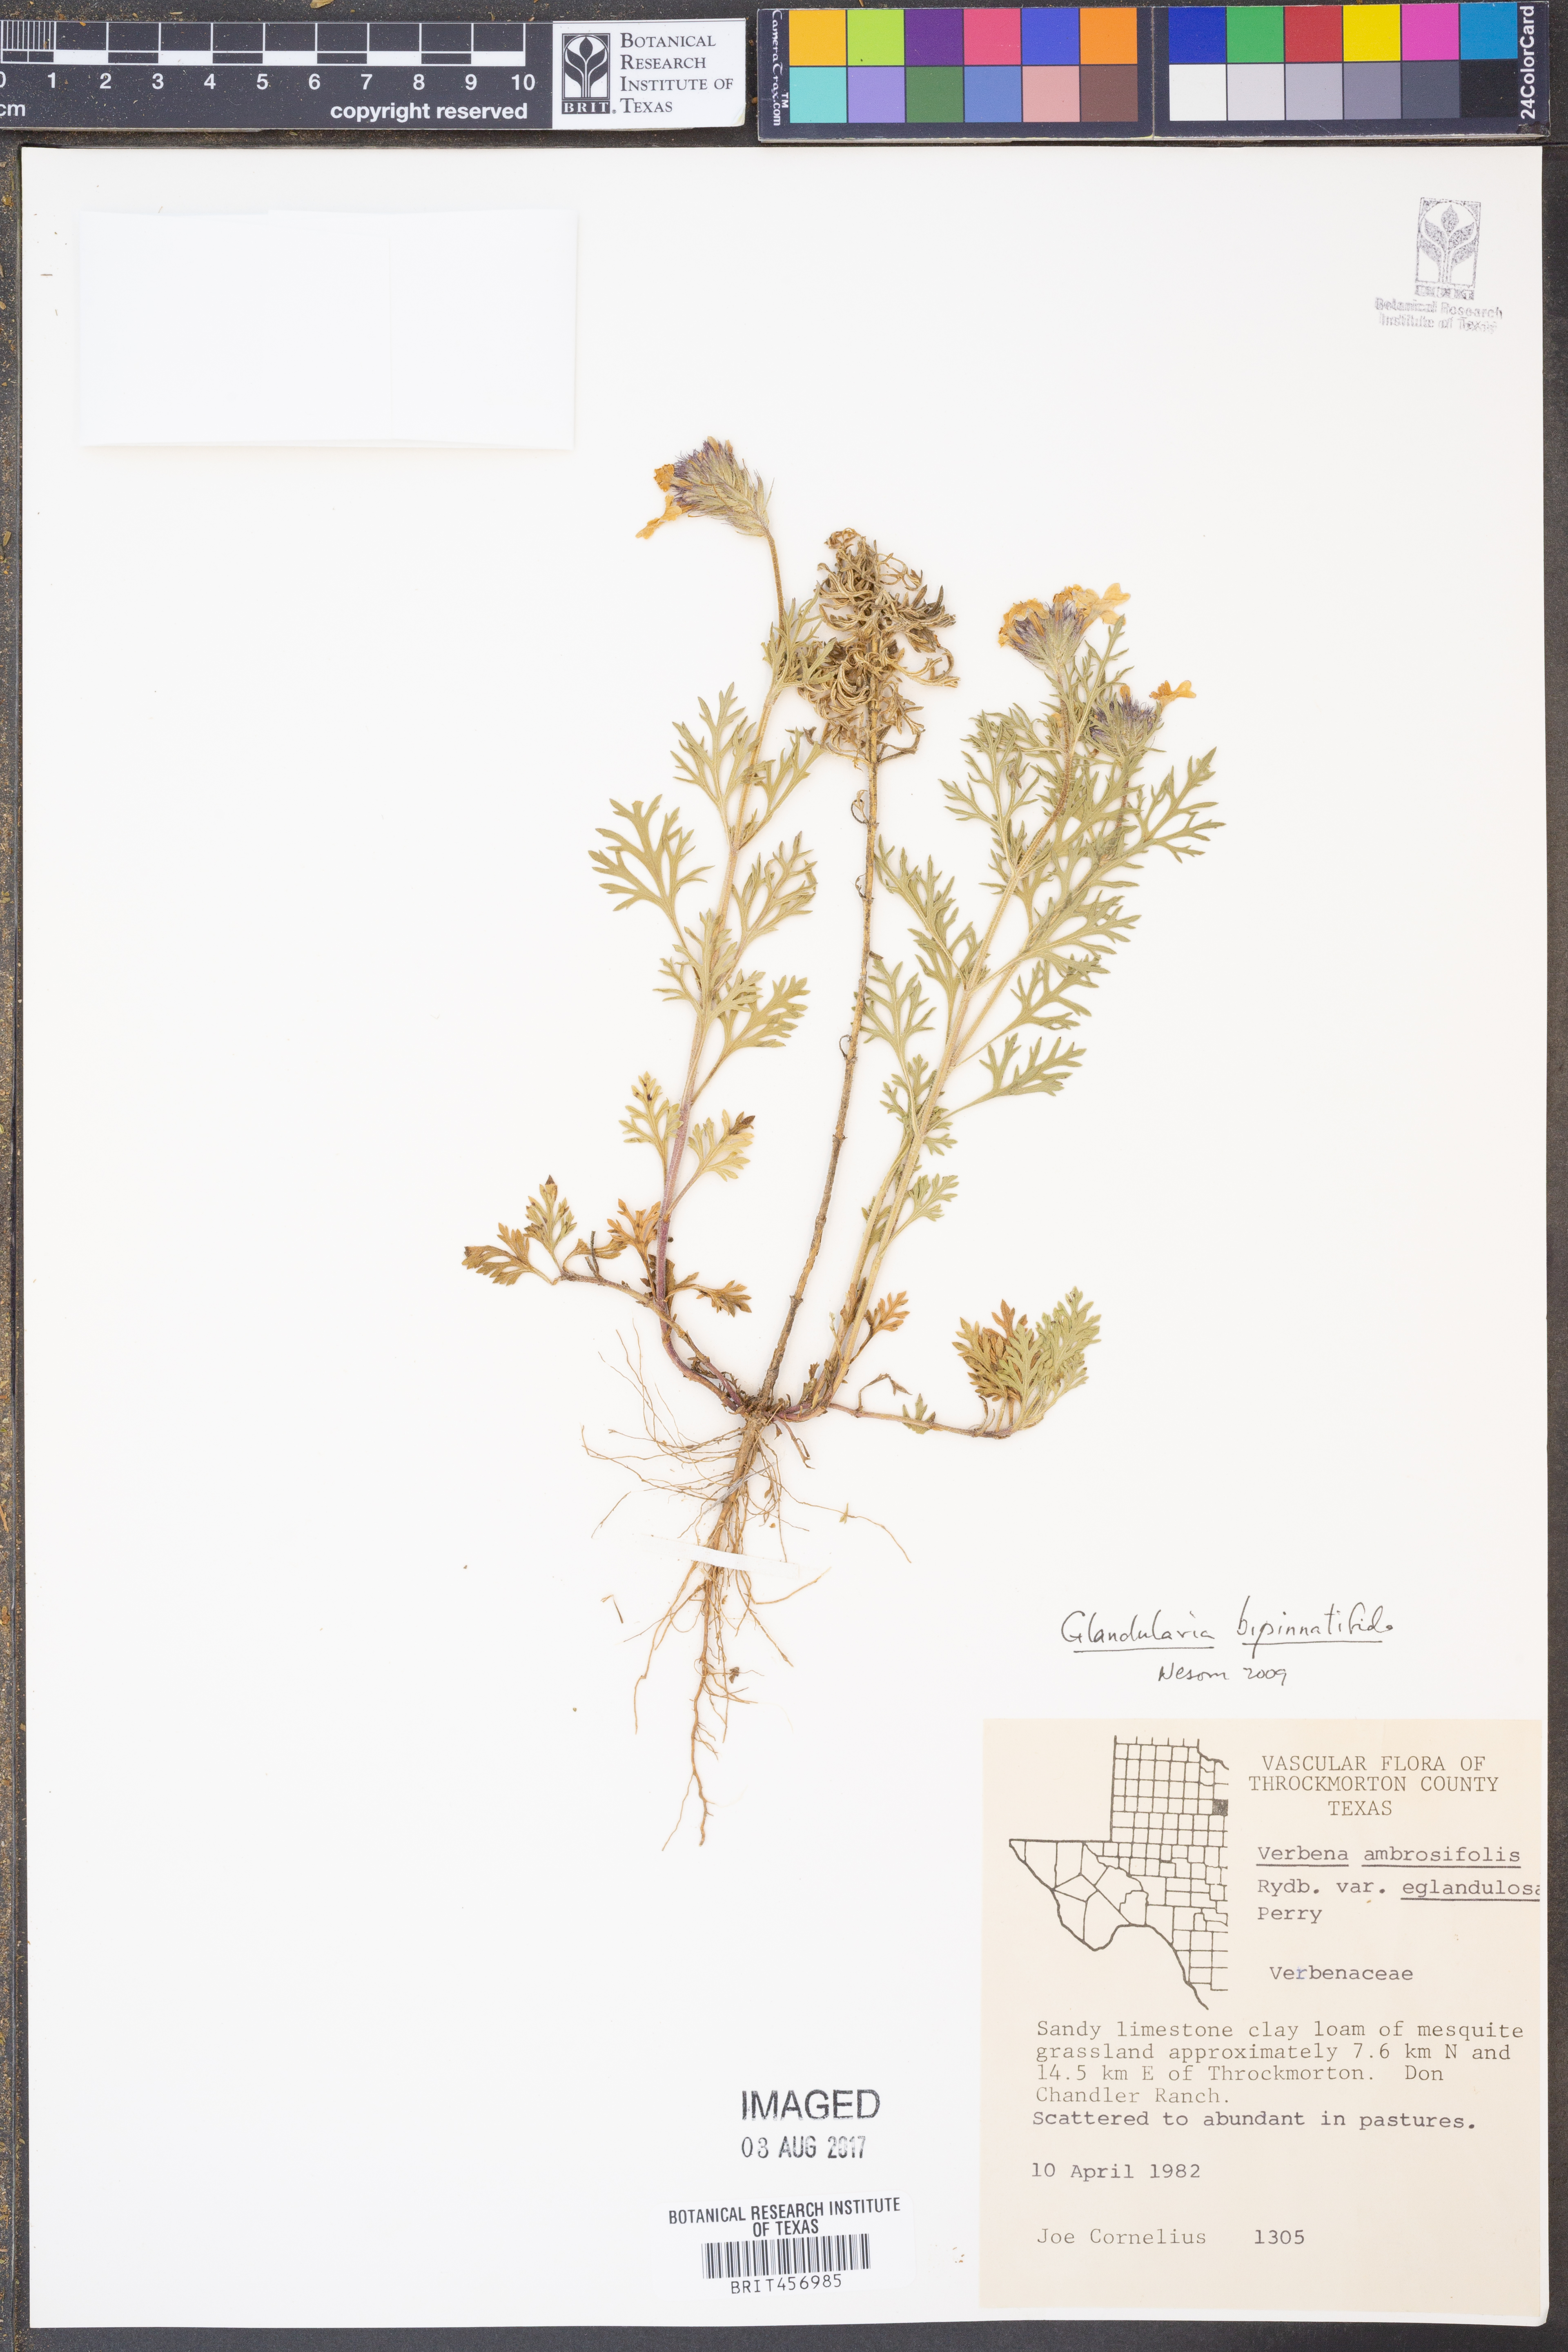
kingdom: Plantae
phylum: Tracheophyta
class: Magnoliopsida
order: Lamiales
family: Verbenaceae
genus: Verbena
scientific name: Verbena bipinnatifida
